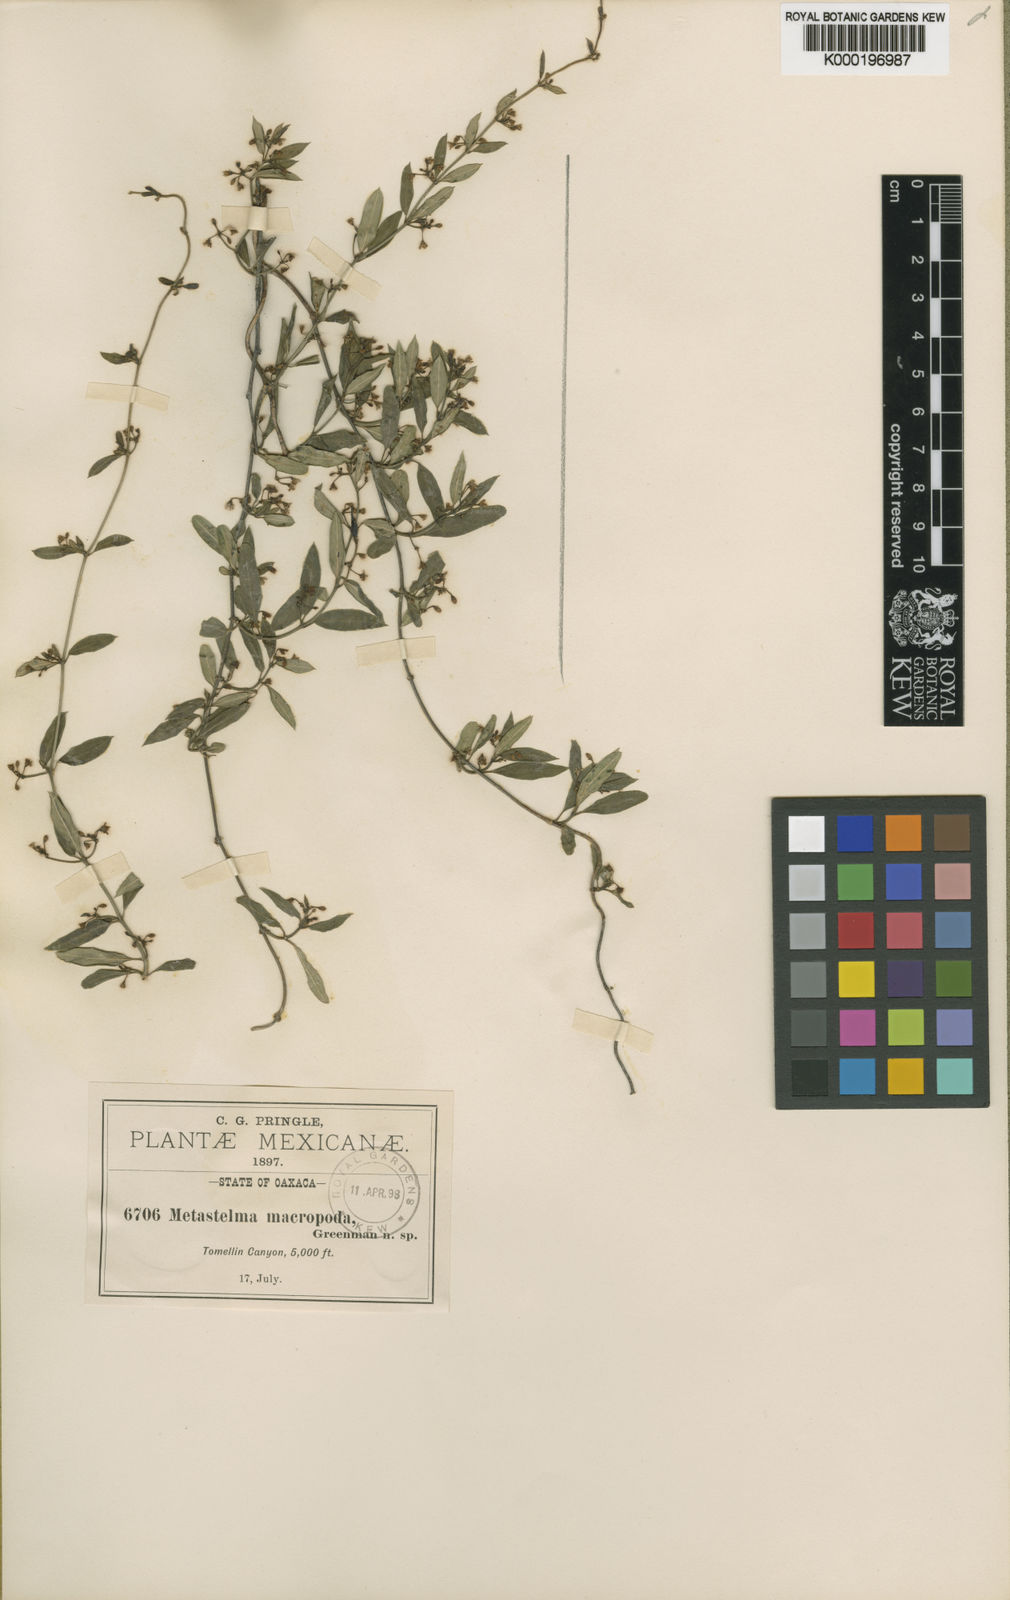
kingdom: Plantae
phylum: Tracheophyta
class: Magnoliopsida
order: Gentianales
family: Apocynaceae
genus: Metastelma
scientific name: Metastelma palmeri
